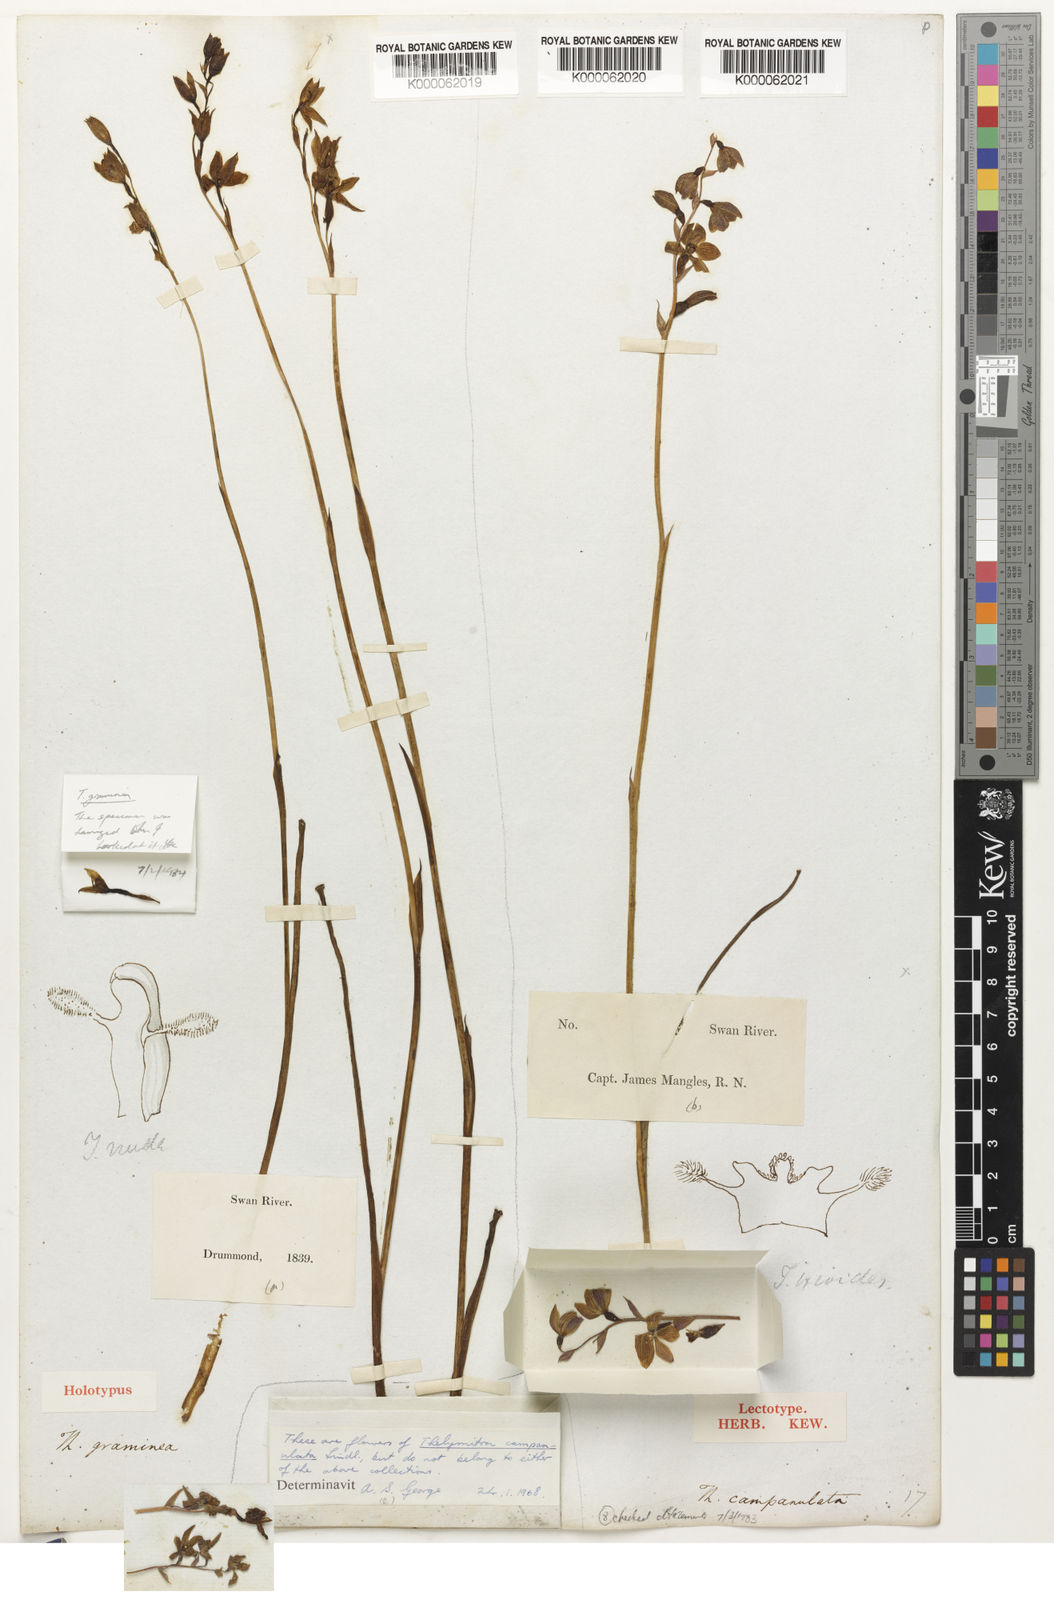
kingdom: Plantae
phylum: Tracheophyta
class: Liliopsida
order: Asparagales
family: Orchidaceae
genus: Thelymitra
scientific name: Thelymitra graminea
